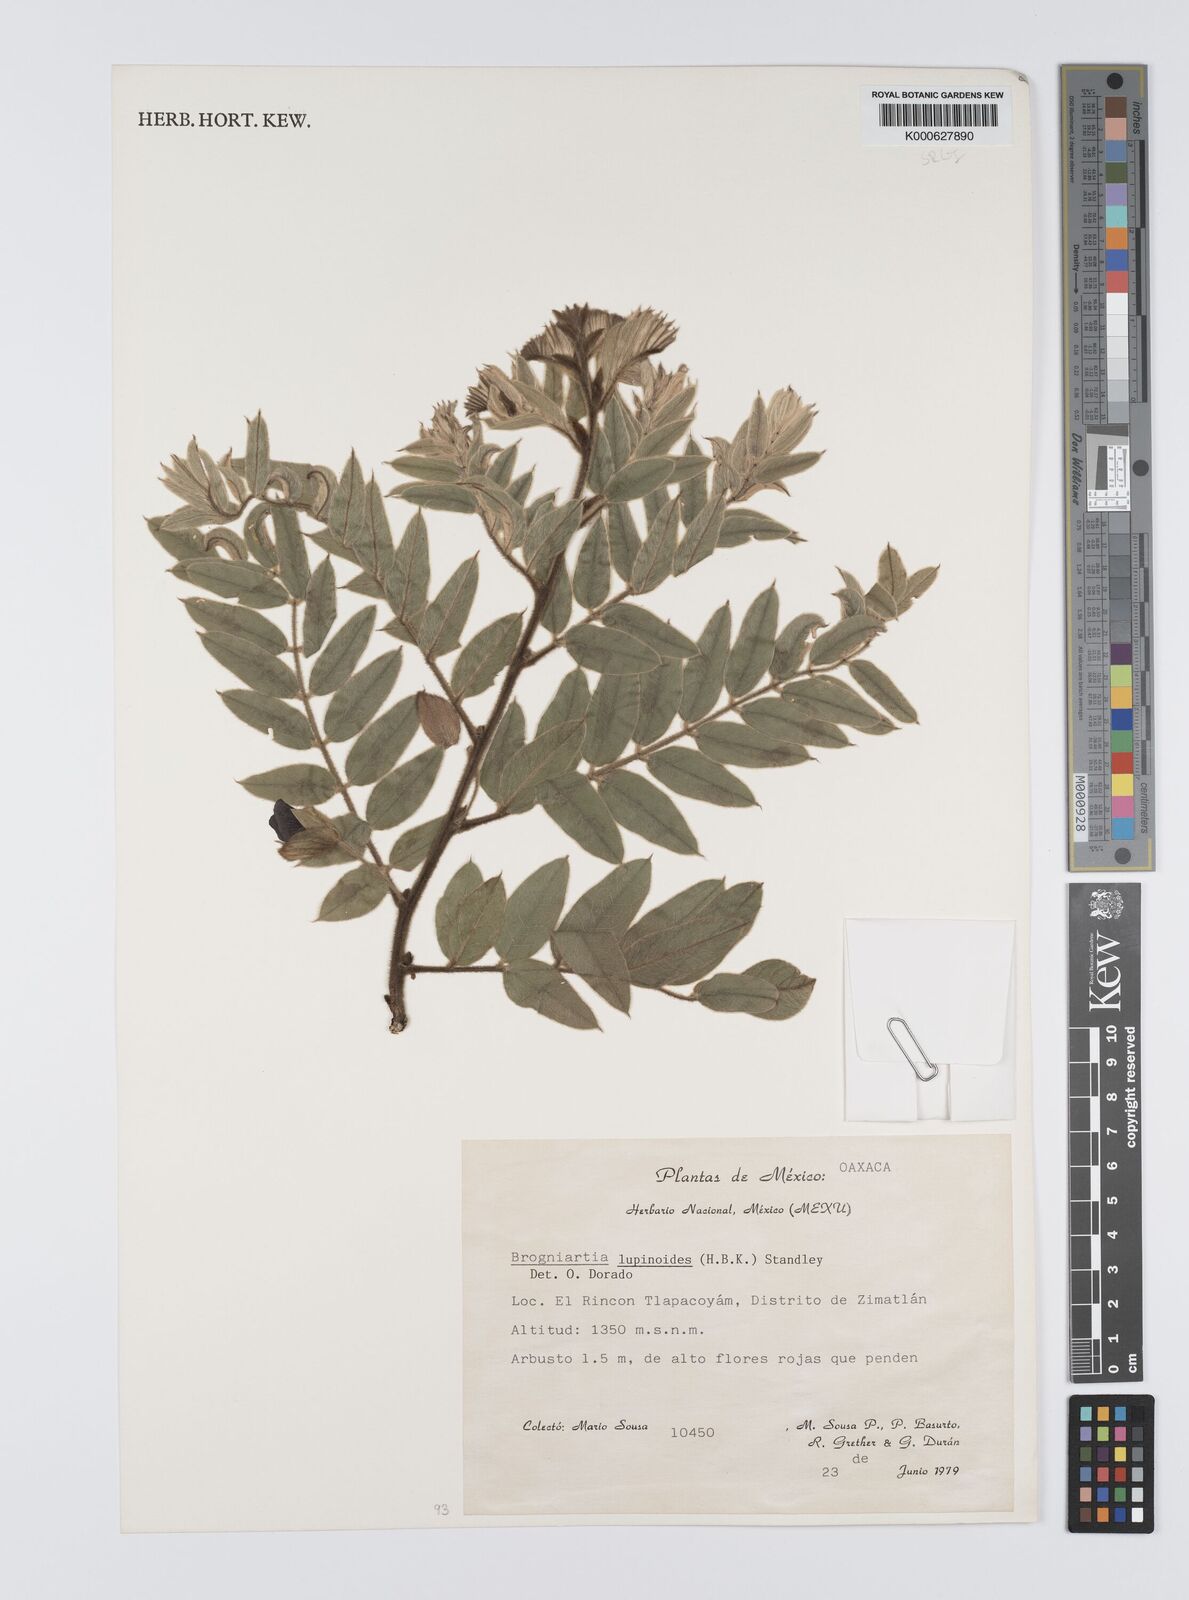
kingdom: Plantae
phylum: Tracheophyta
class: Magnoliopsida
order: Fabales
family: Fabaceae
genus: Brongniartia
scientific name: Brongniartia lupinoides
